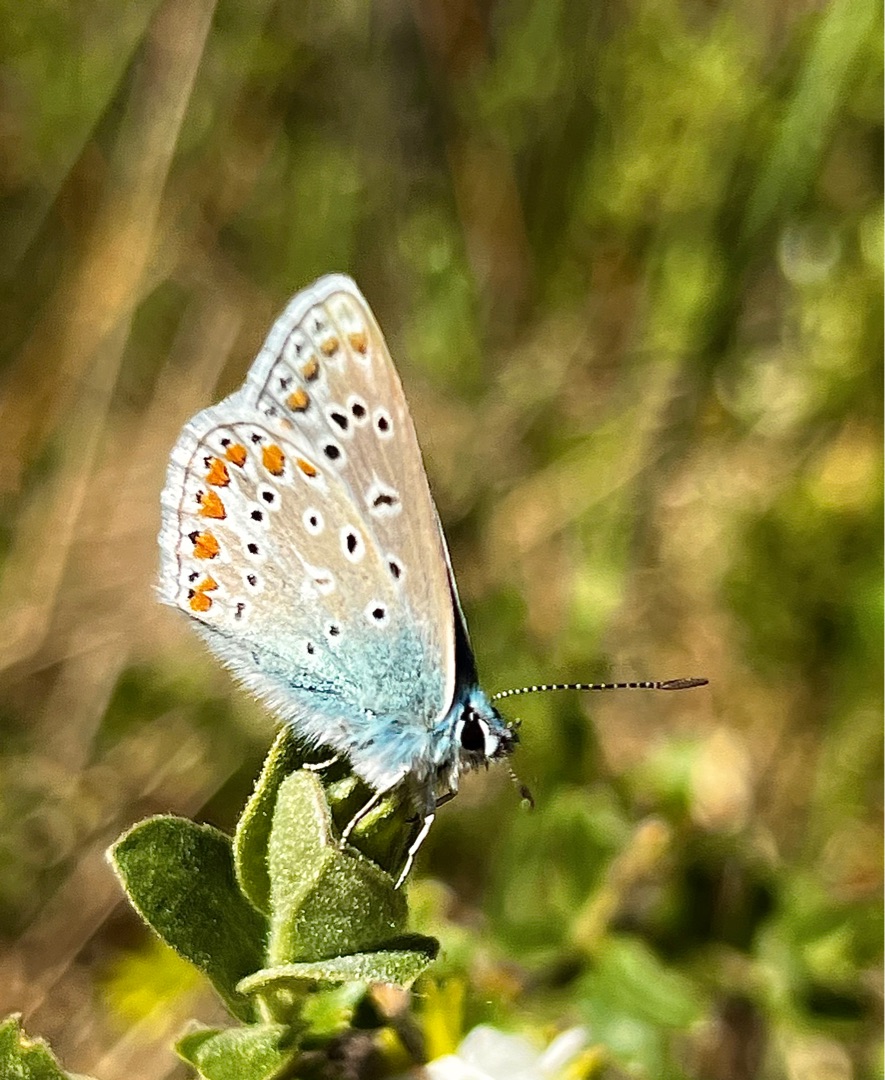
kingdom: Animalia
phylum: Arthropoda
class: Insecta
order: Lepidoptera
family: Lycaenidae
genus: Polyommatus
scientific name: Polyommatus icarus
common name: Almindelig blåfugl
